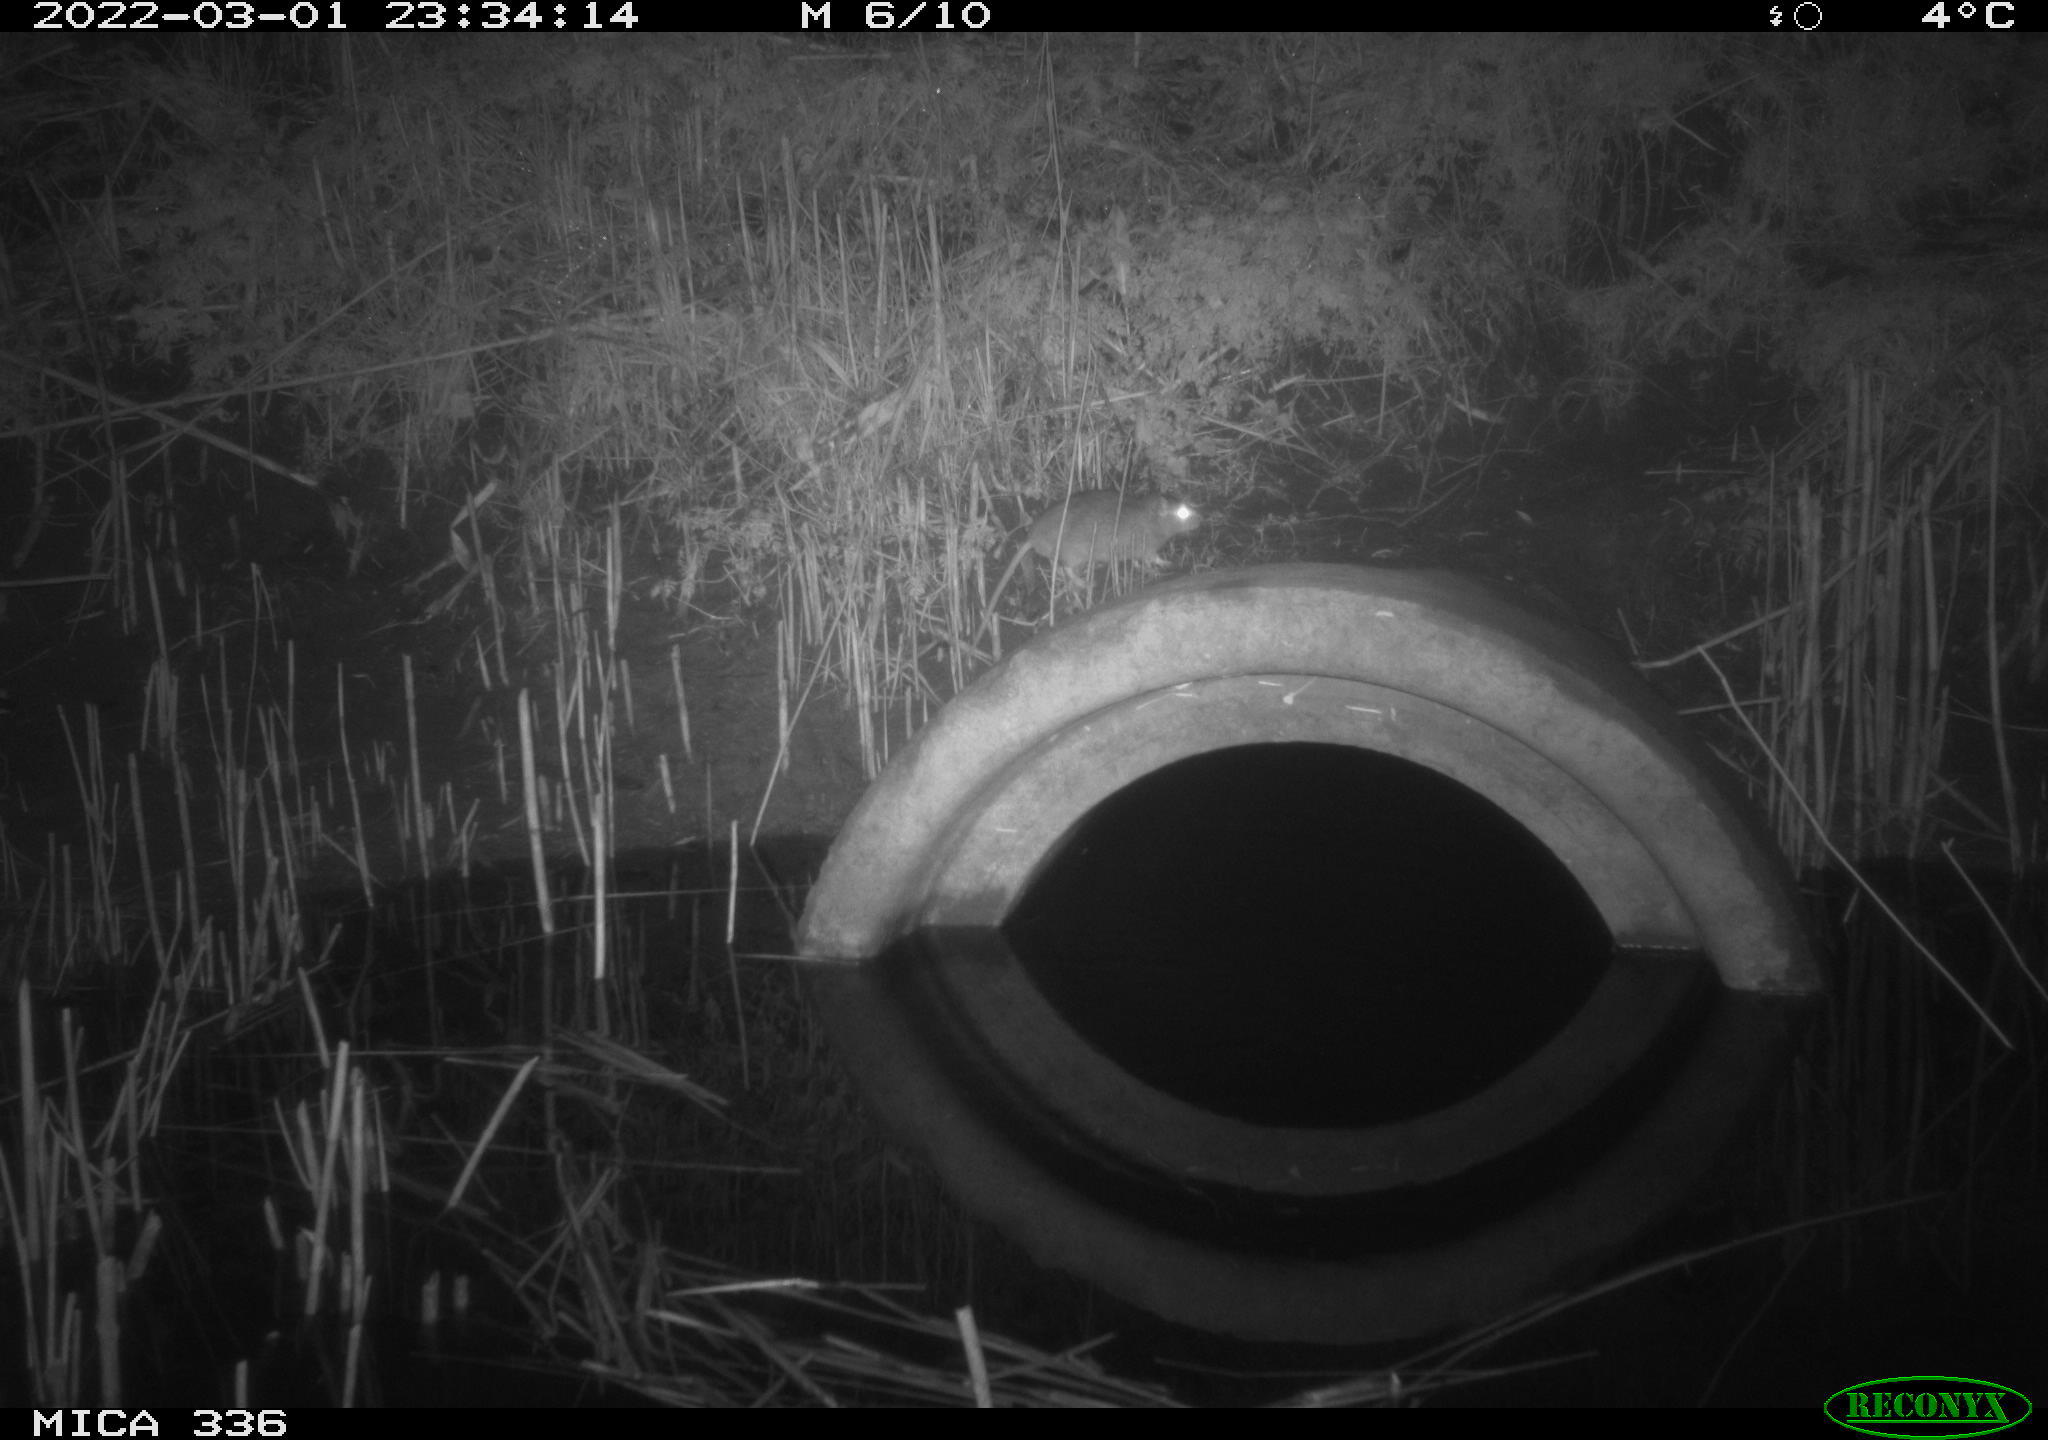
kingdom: Animalia
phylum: Chordata
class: Mammalia
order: Rodentia
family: Muridae
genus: Rattus
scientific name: Rattus norvegicus
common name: Brown rat
